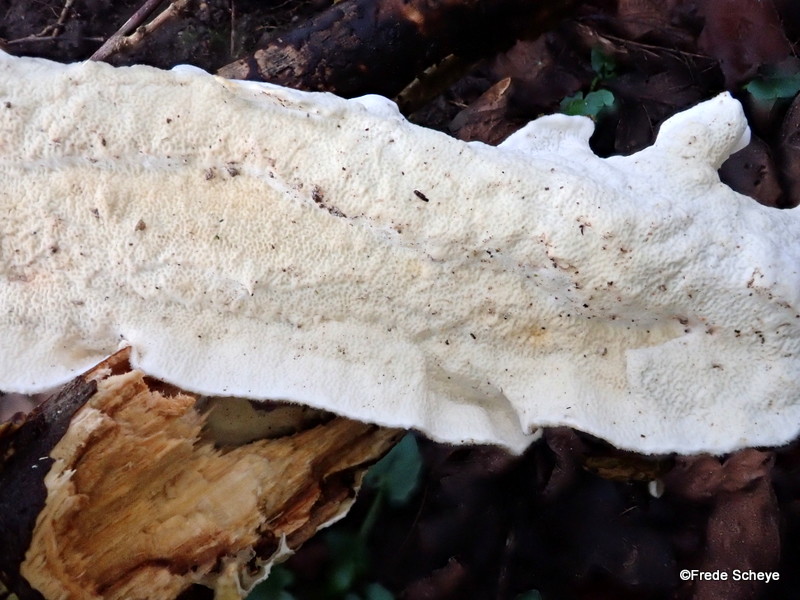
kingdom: Fungi
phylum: Basidiomycota
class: Agaricomycetes
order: Polyporales
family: Irpicaceae
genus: Byssomerulius
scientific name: Byssomerulius corium
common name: læder-åresvamp
